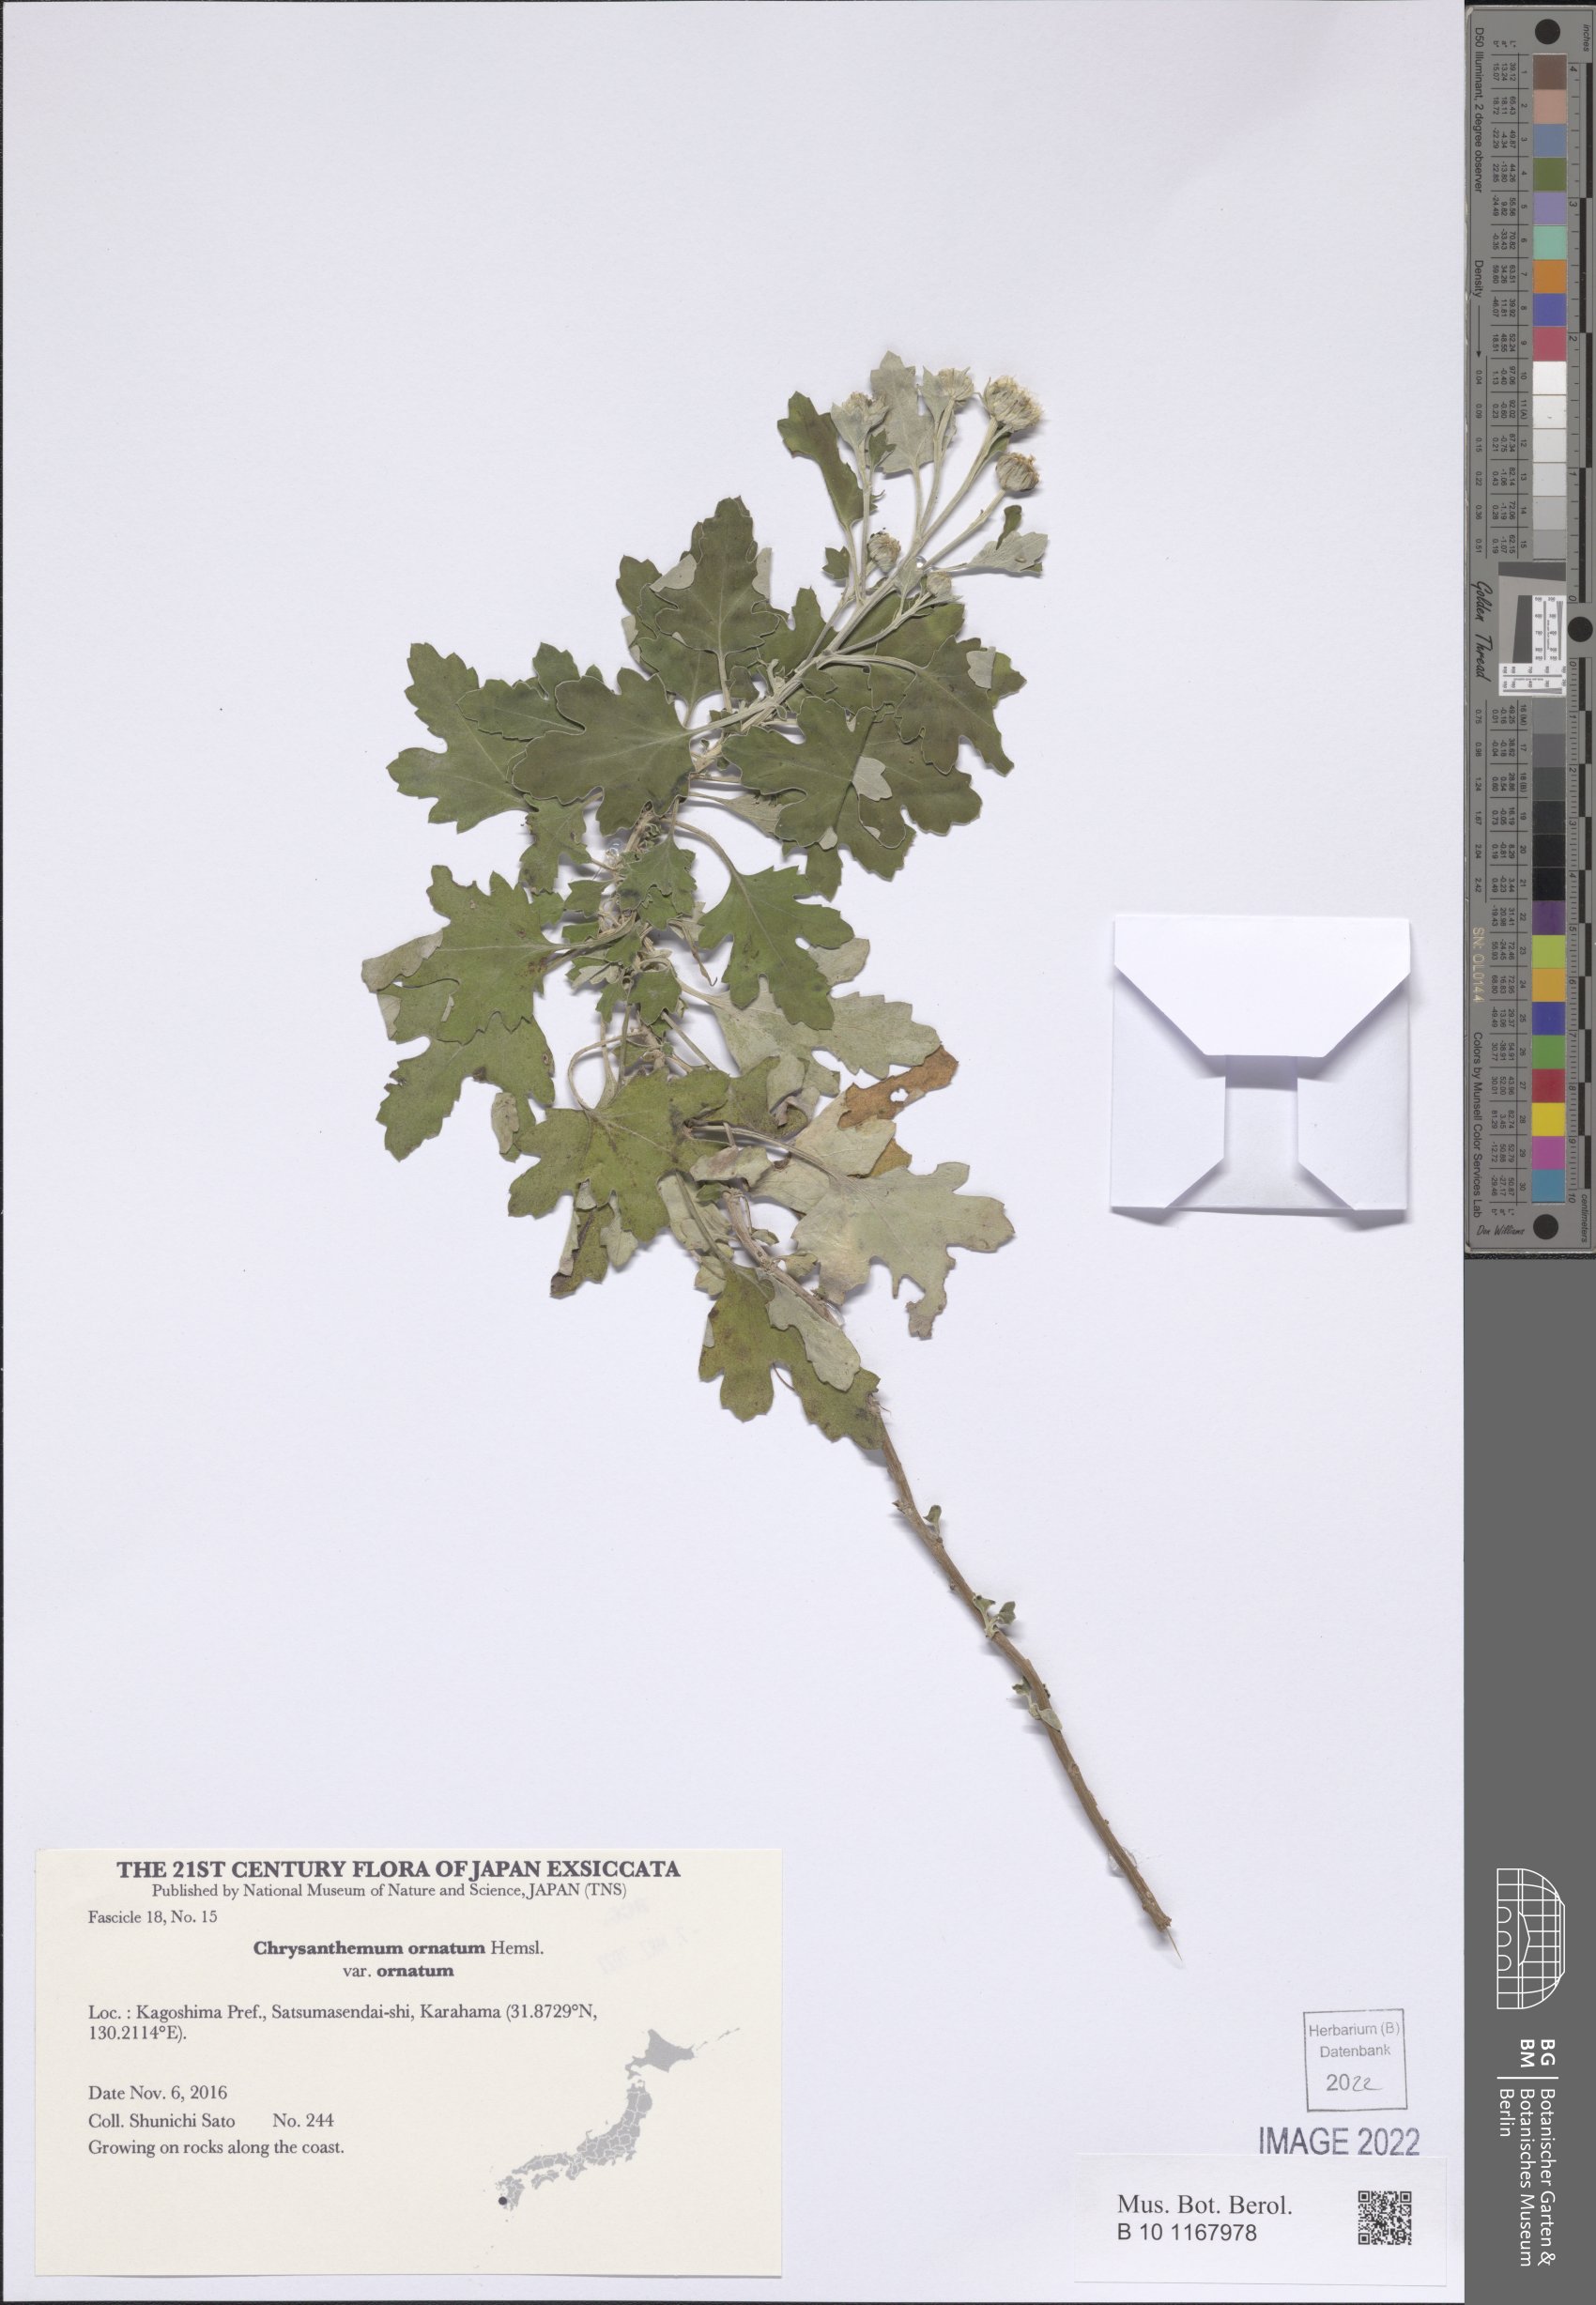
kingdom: Plantae
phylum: Tracheophyta
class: Magnoliopsida
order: Asterales
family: Asteraceae
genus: Chrysanthemum
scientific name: Chrysanthemum ornatum
